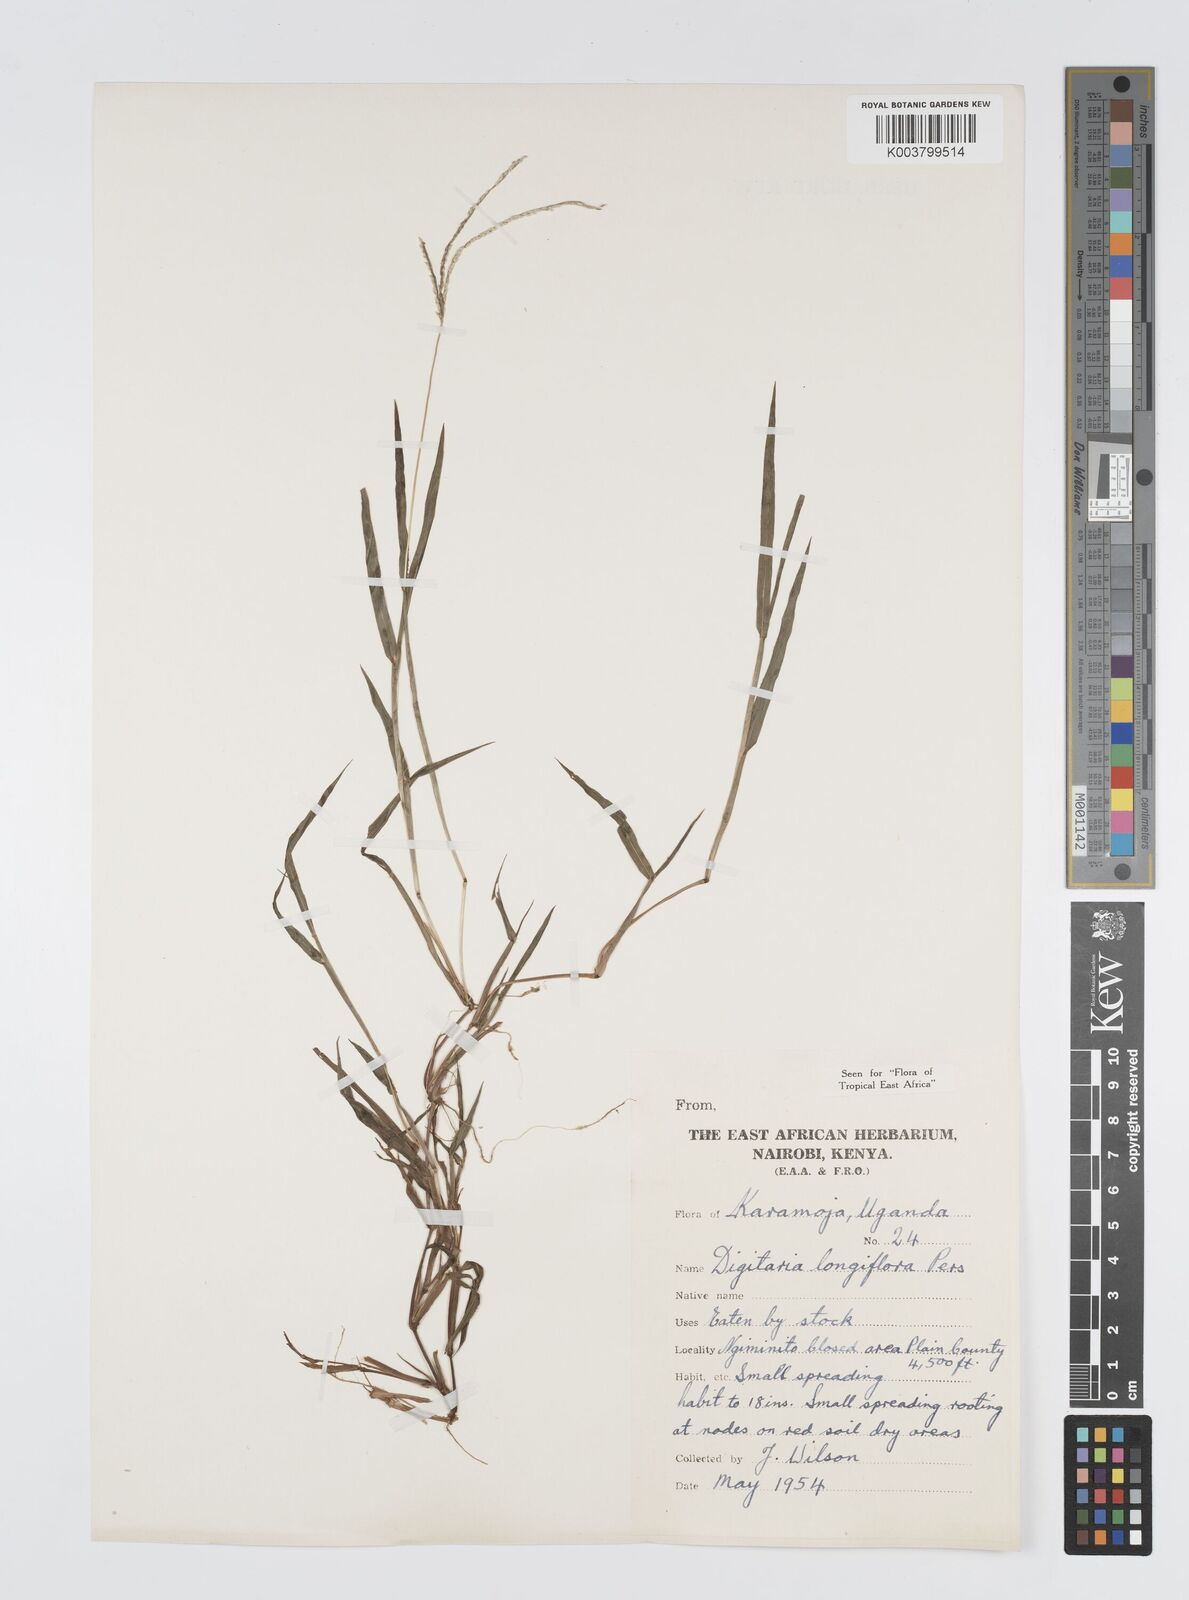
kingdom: Plantae
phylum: Tracheophyta
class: Liliopsida
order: Poales
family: Poaceae
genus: Digitaria
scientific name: Digitaria longiflora
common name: Wire crabgrass
